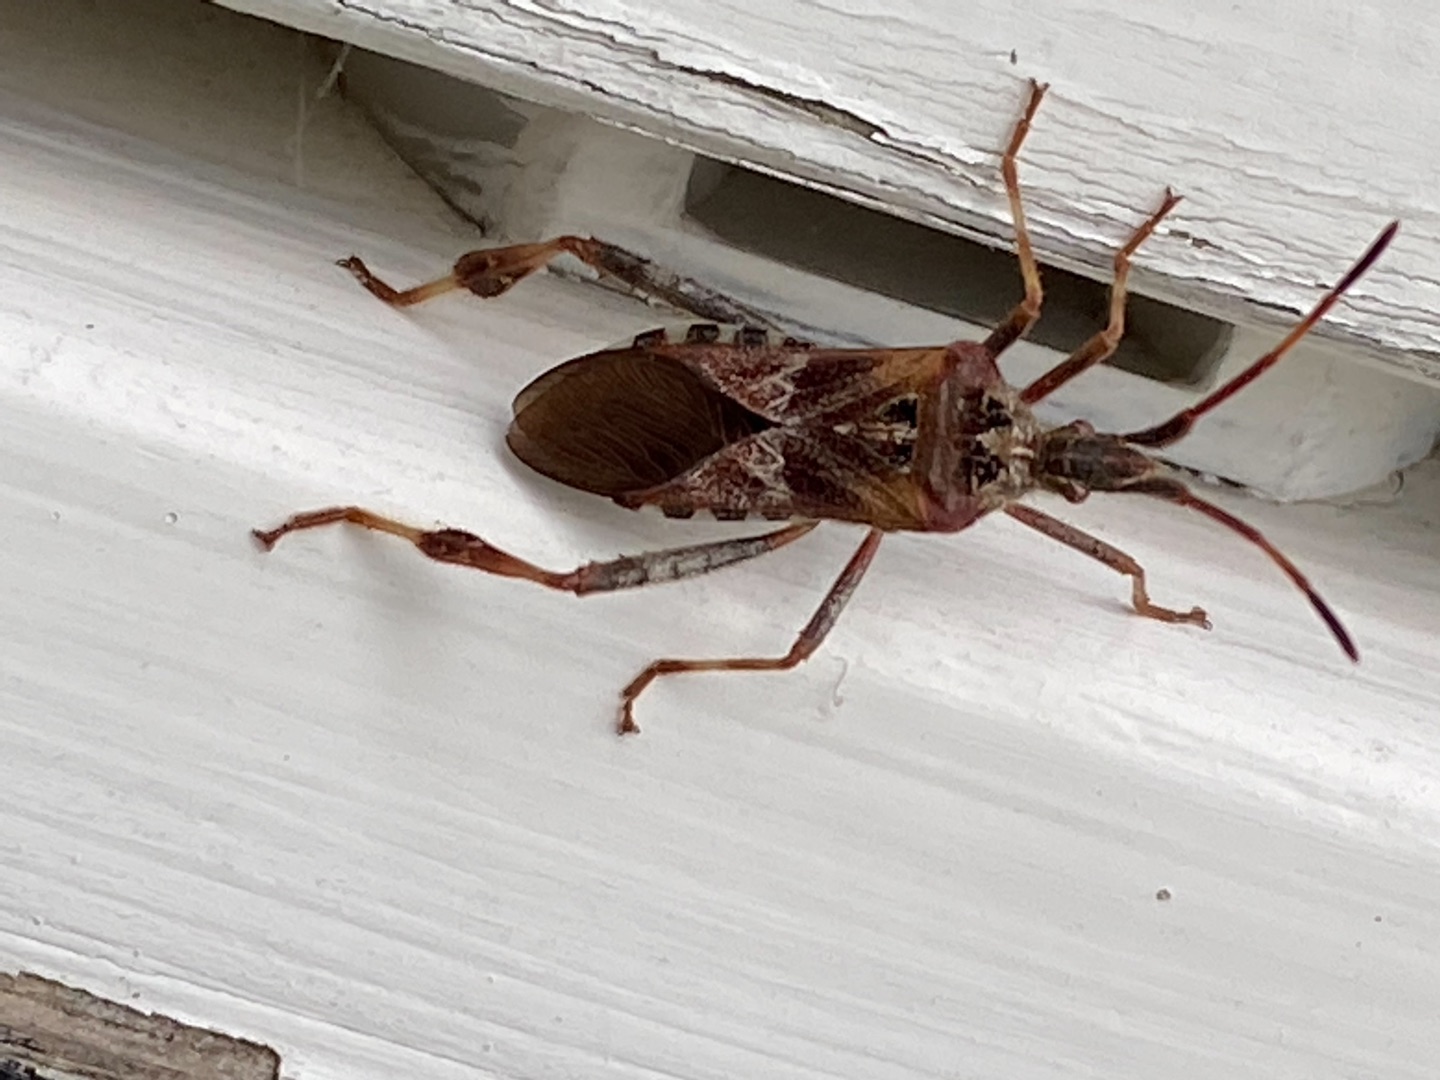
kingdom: Animalia
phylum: Arthropoda
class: Insecta
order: Hemiptera
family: Coreidae
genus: Leptoglossus
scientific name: Leptoglossus occidentalis
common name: Amerikansk fyrretæge
